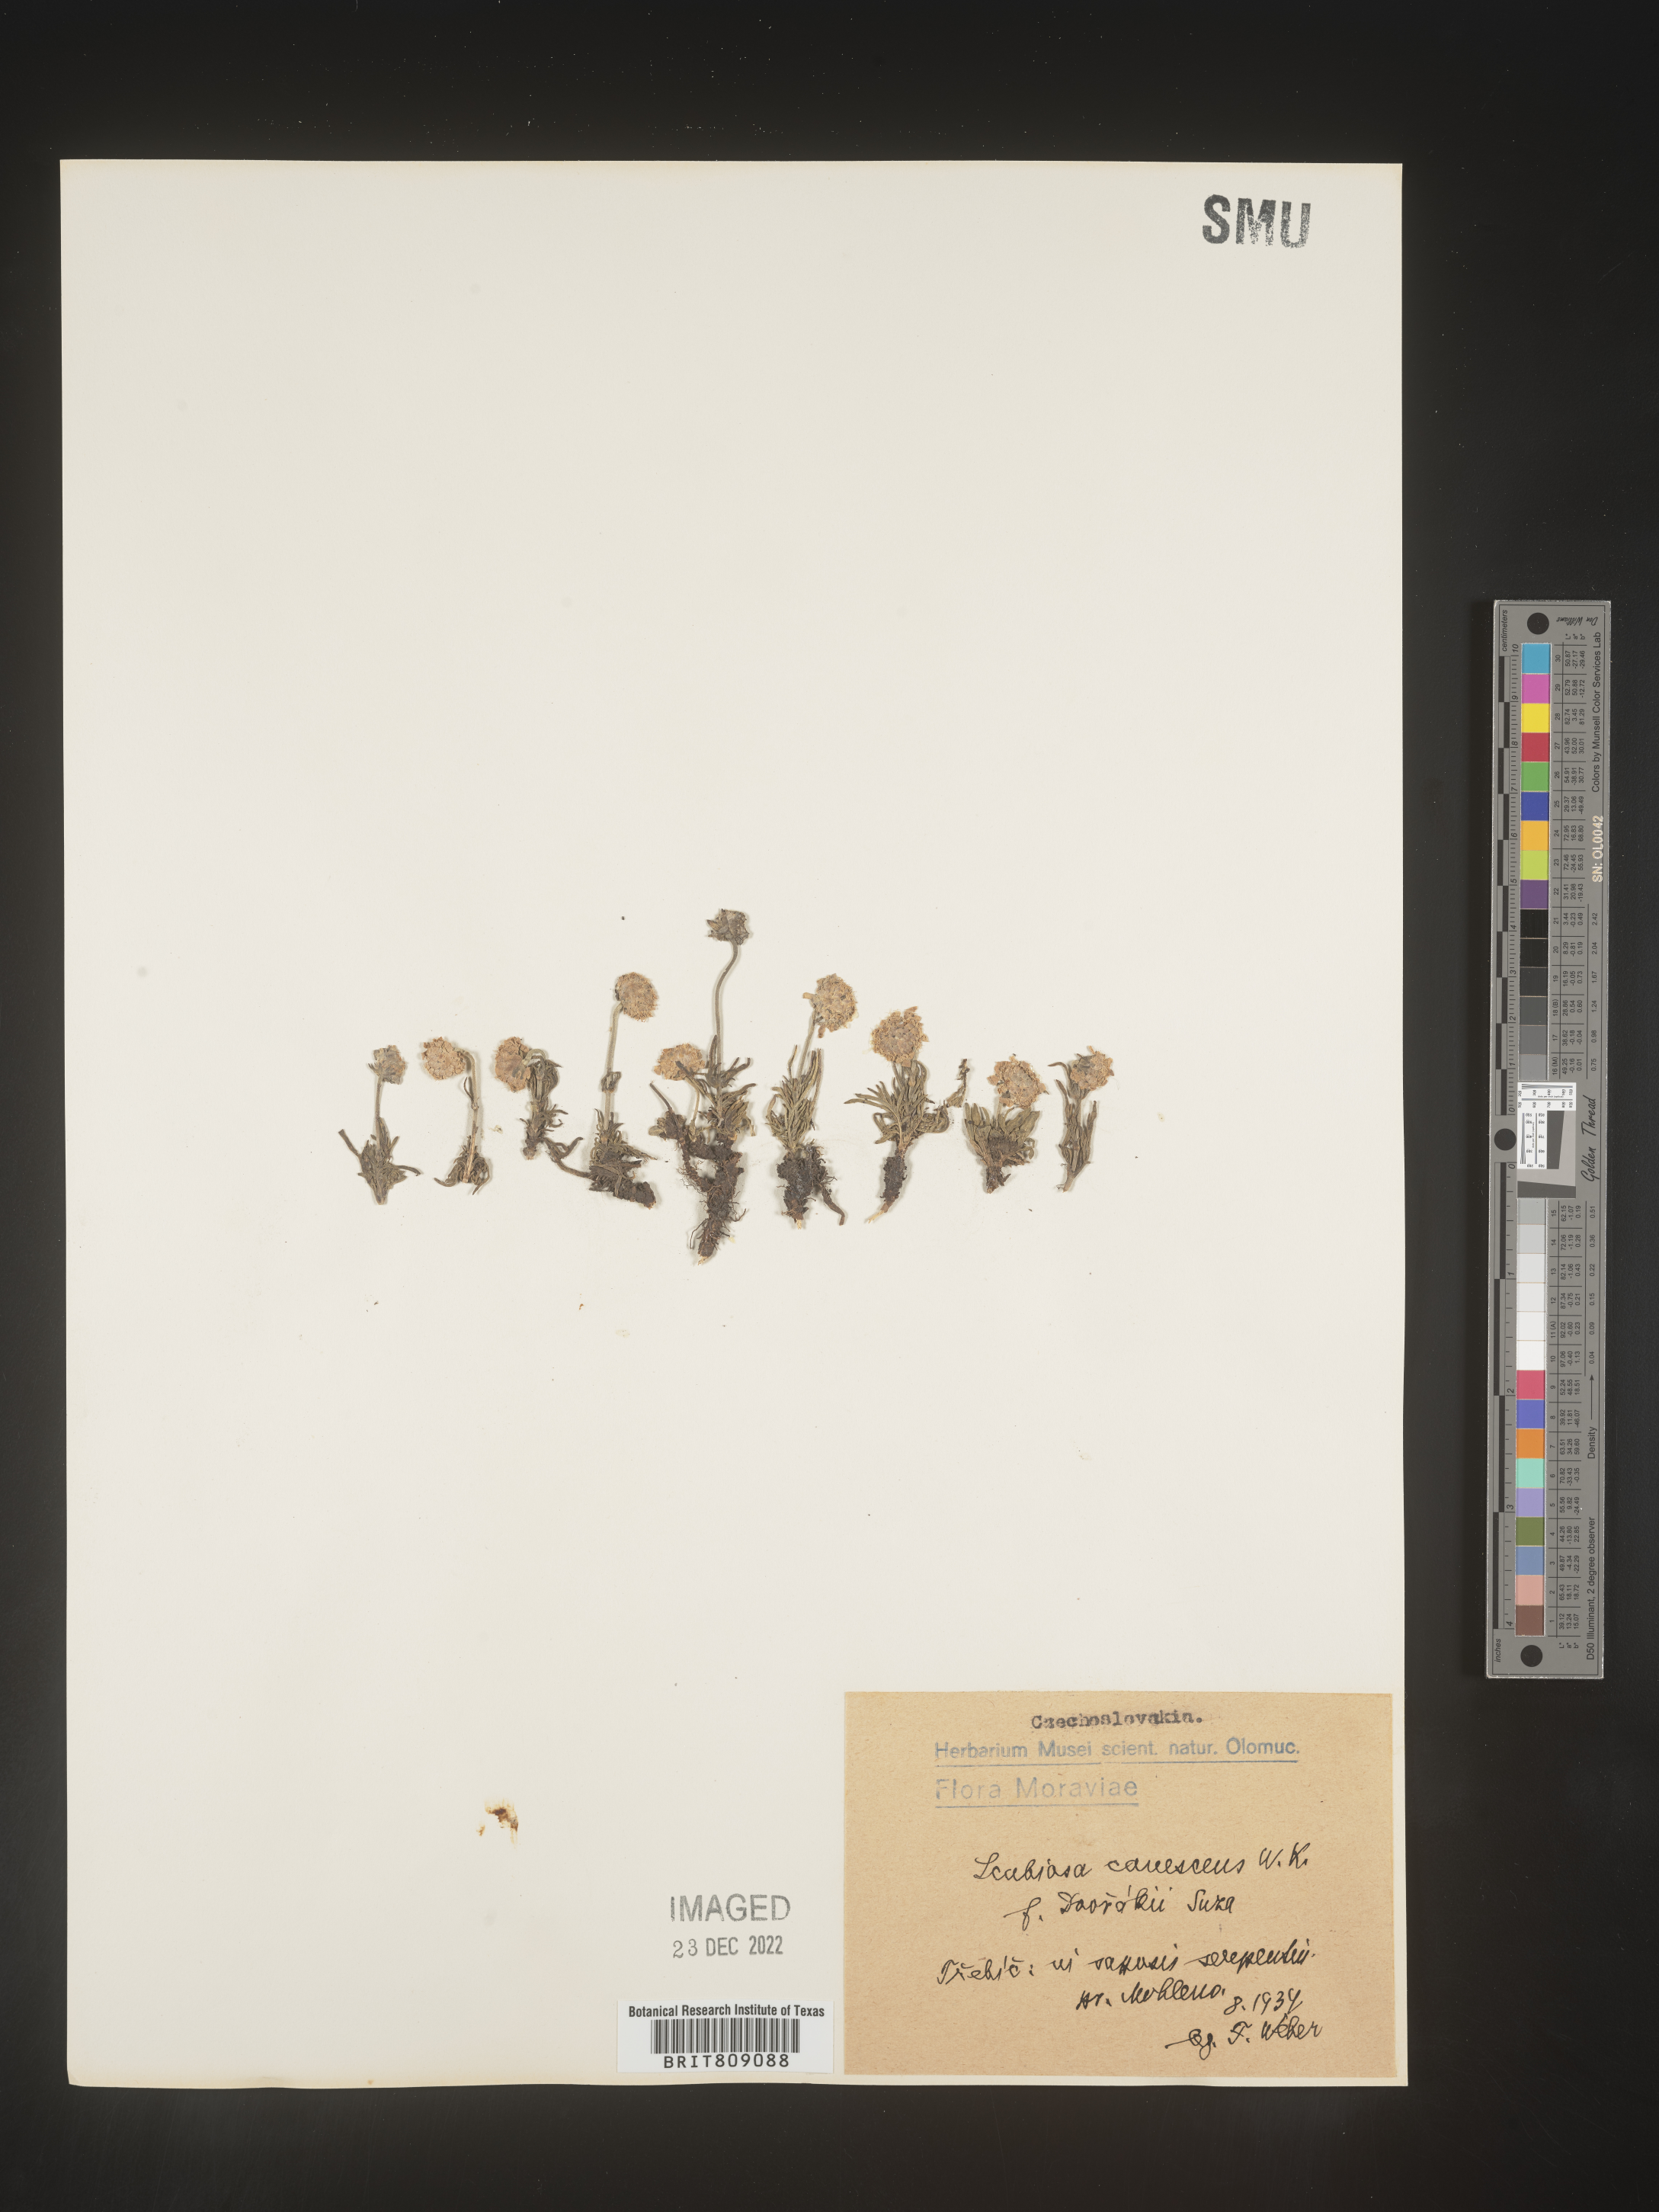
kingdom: Plantae
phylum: Tracheophyta
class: Magnoliopsida
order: Dipsacales
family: Caprifoliaceae
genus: Scabiosa
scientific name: Scabiosa
